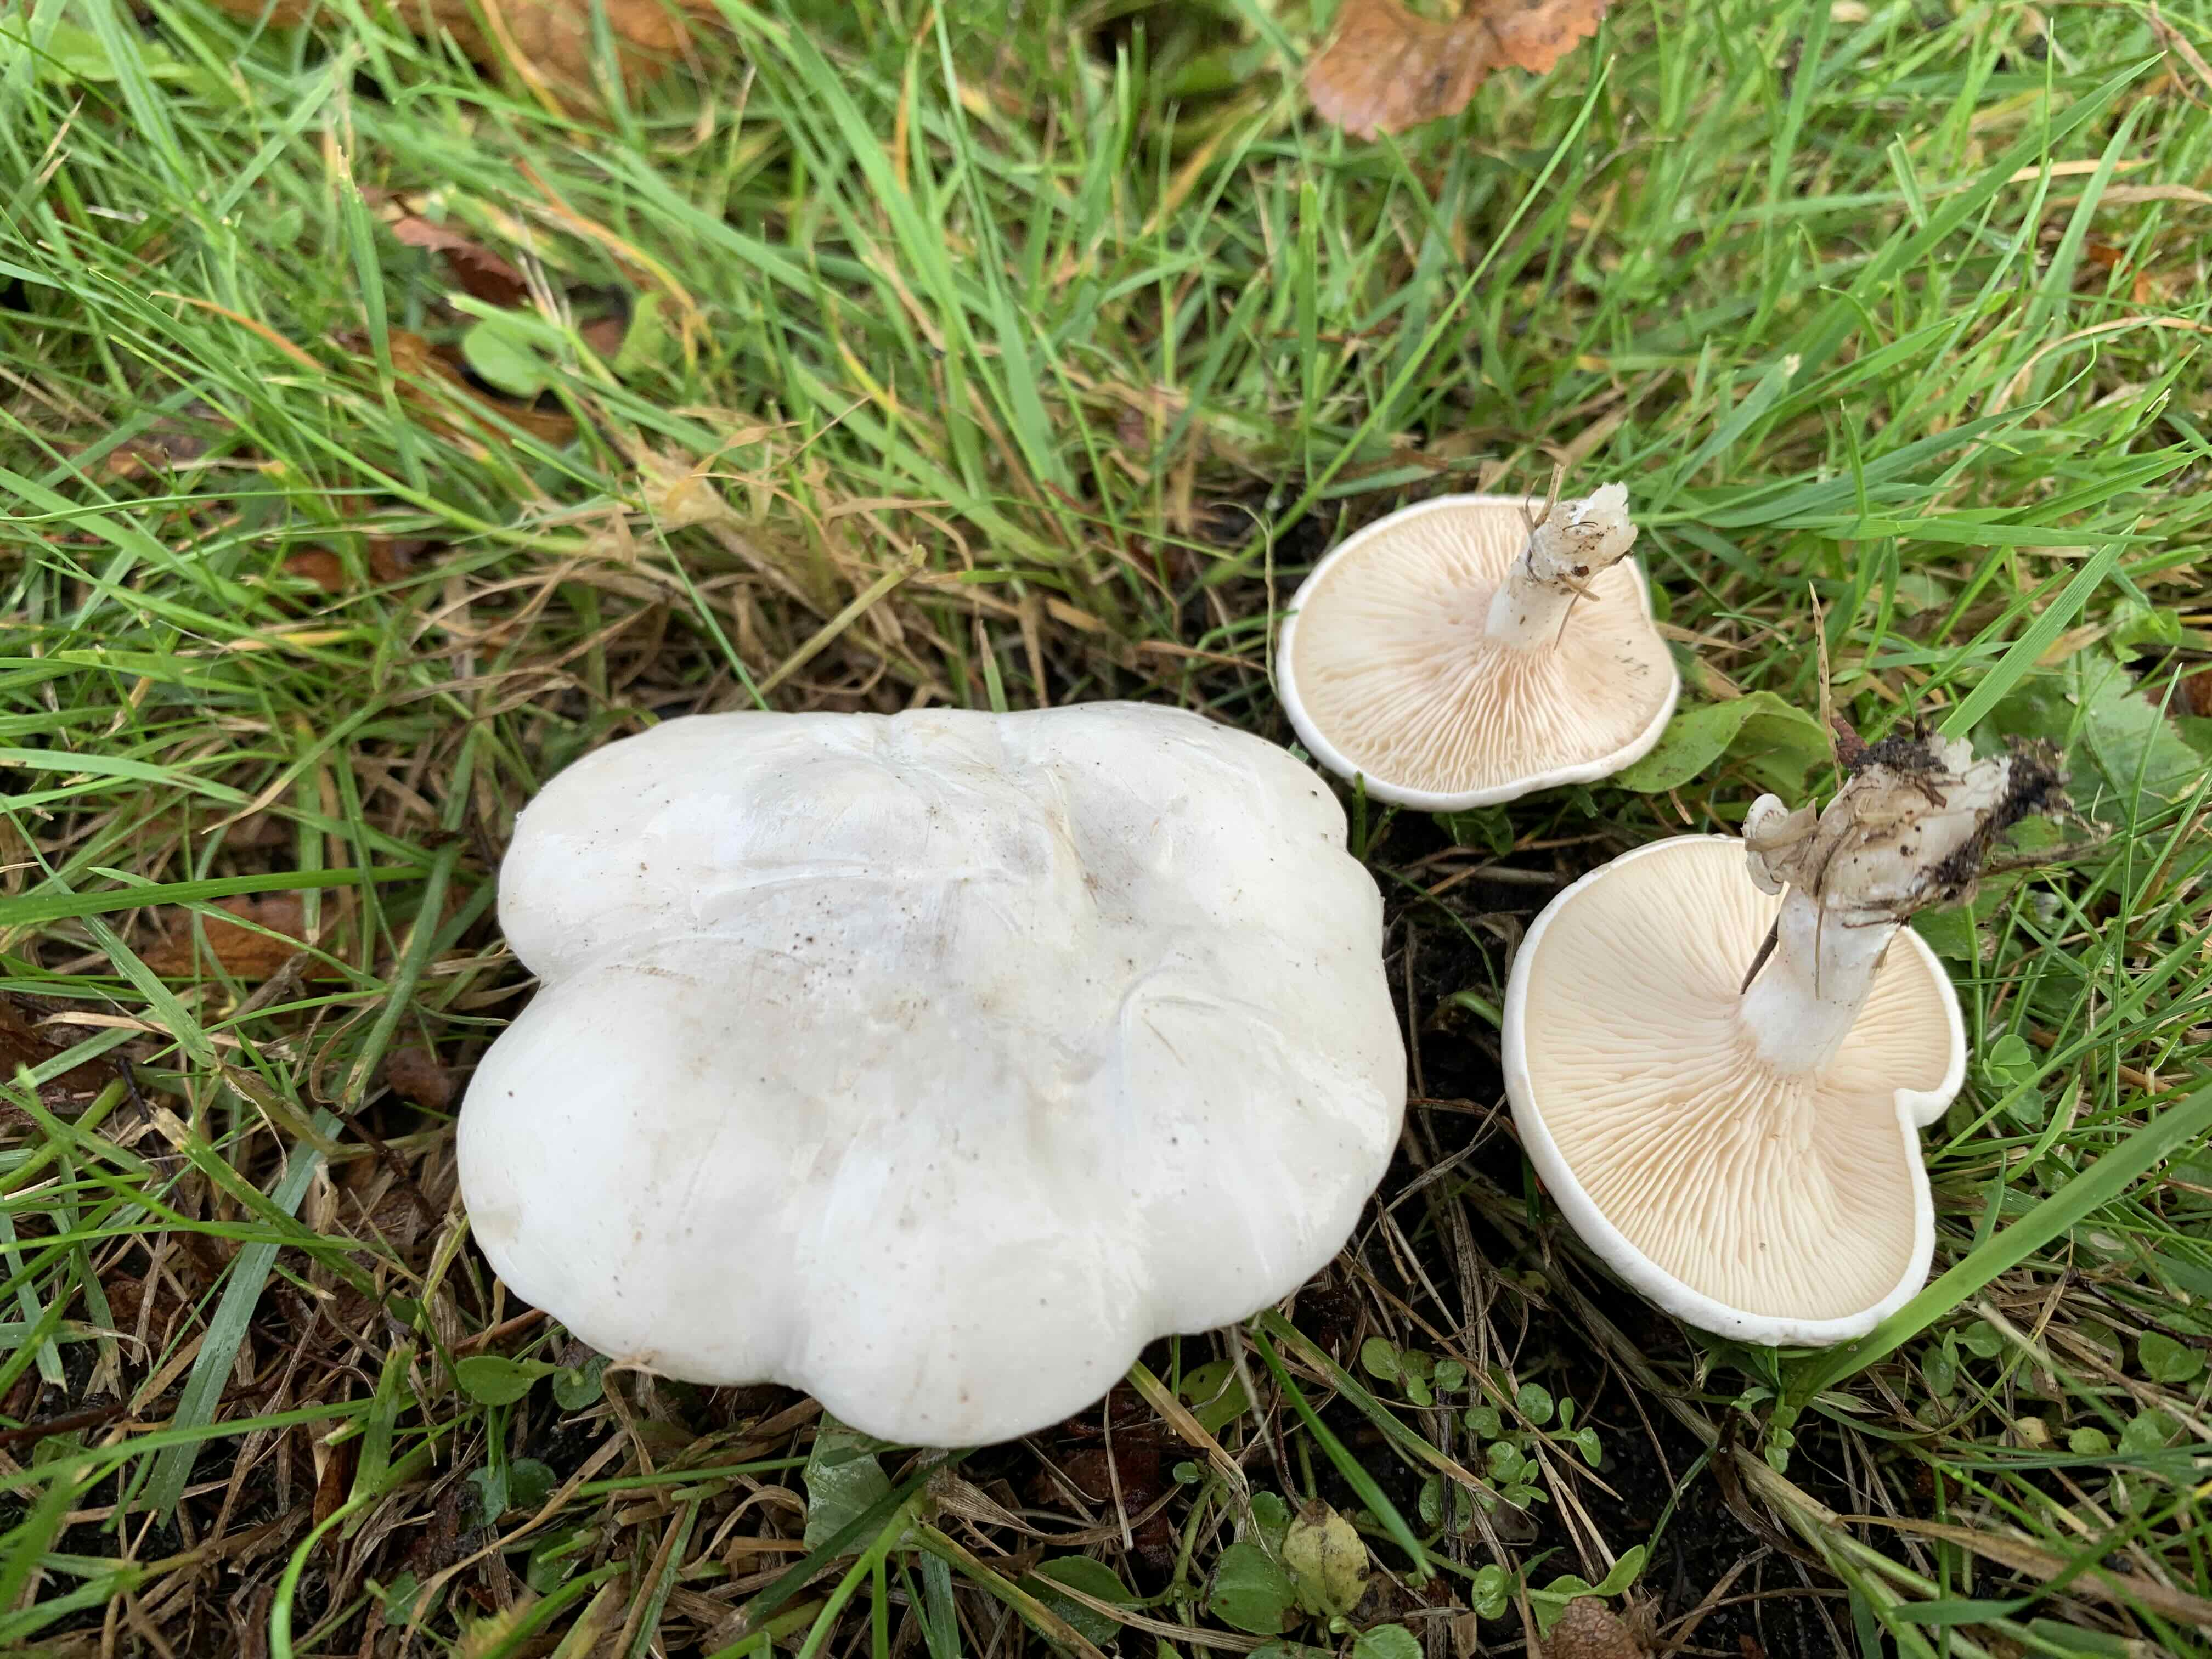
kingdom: Fungi
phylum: Basidiomycota
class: Agaricomycetes
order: Agaricales
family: Entolomataceae
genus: Clitopilus
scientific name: Clitopilus prunulus
